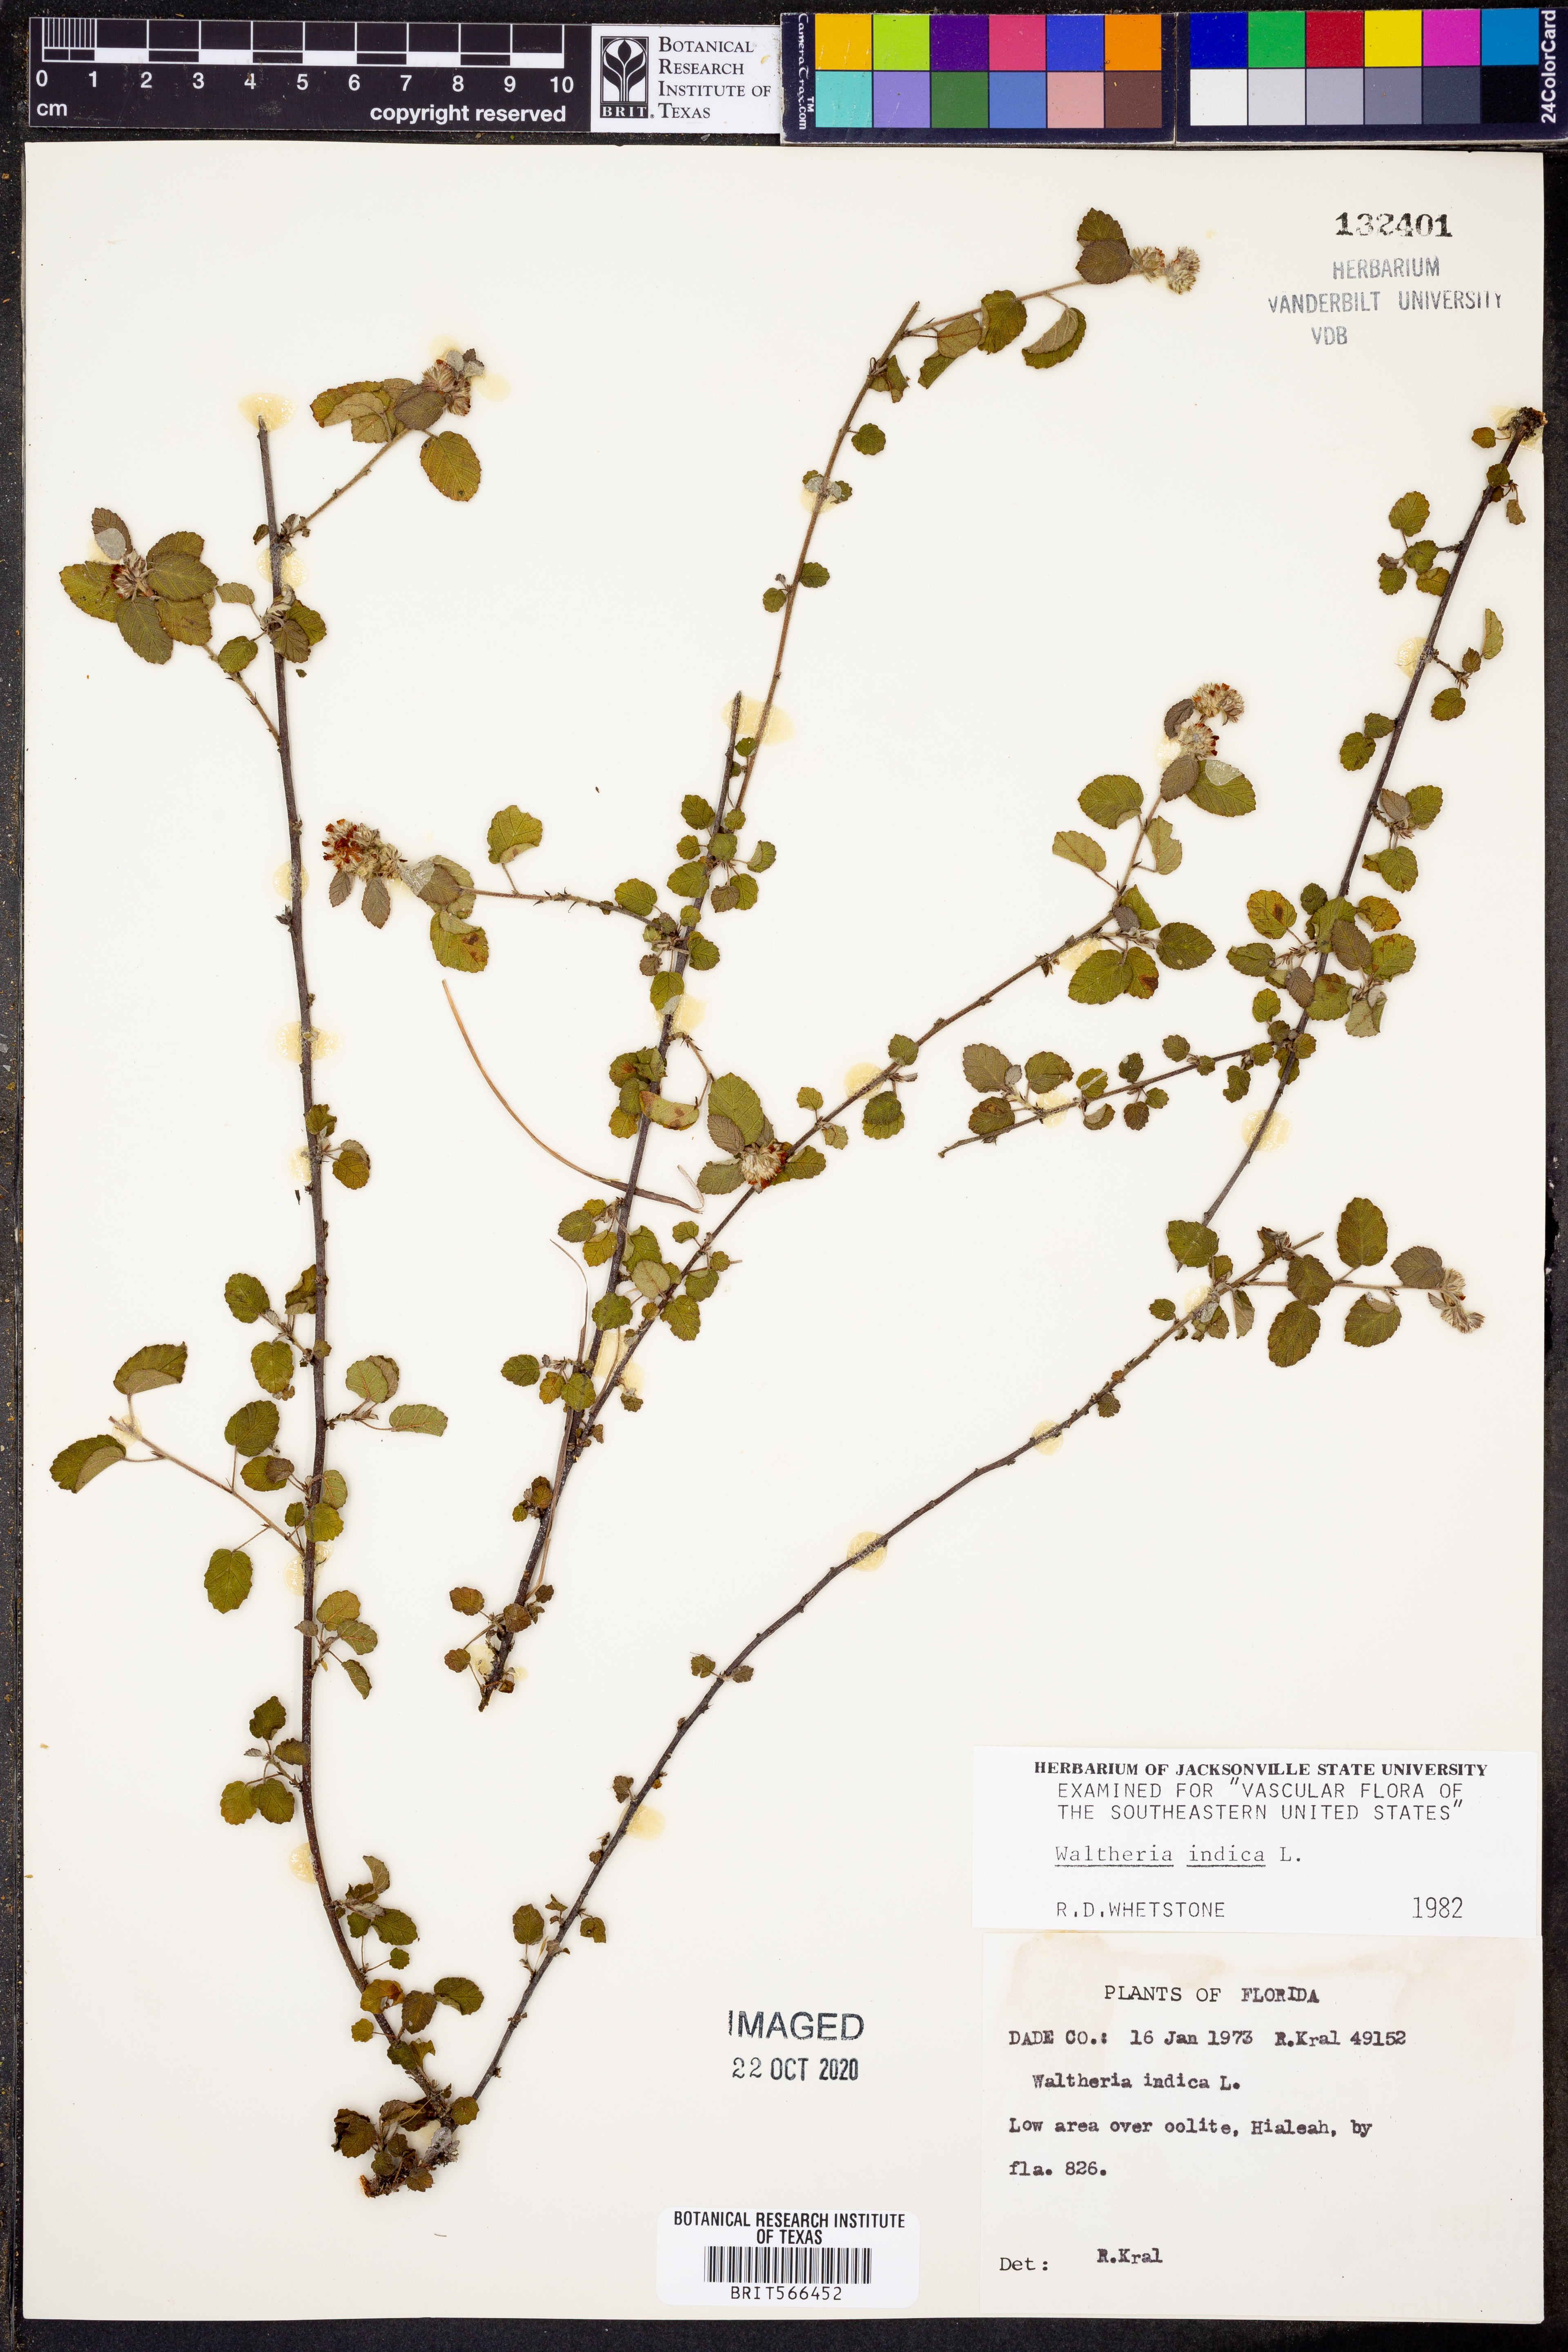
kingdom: Plantae
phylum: Tracheophyta
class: Magnoliopsida
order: Malvales
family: Malvaceae
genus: Waltheria
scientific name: Waltheria indica
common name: Leather-coat
